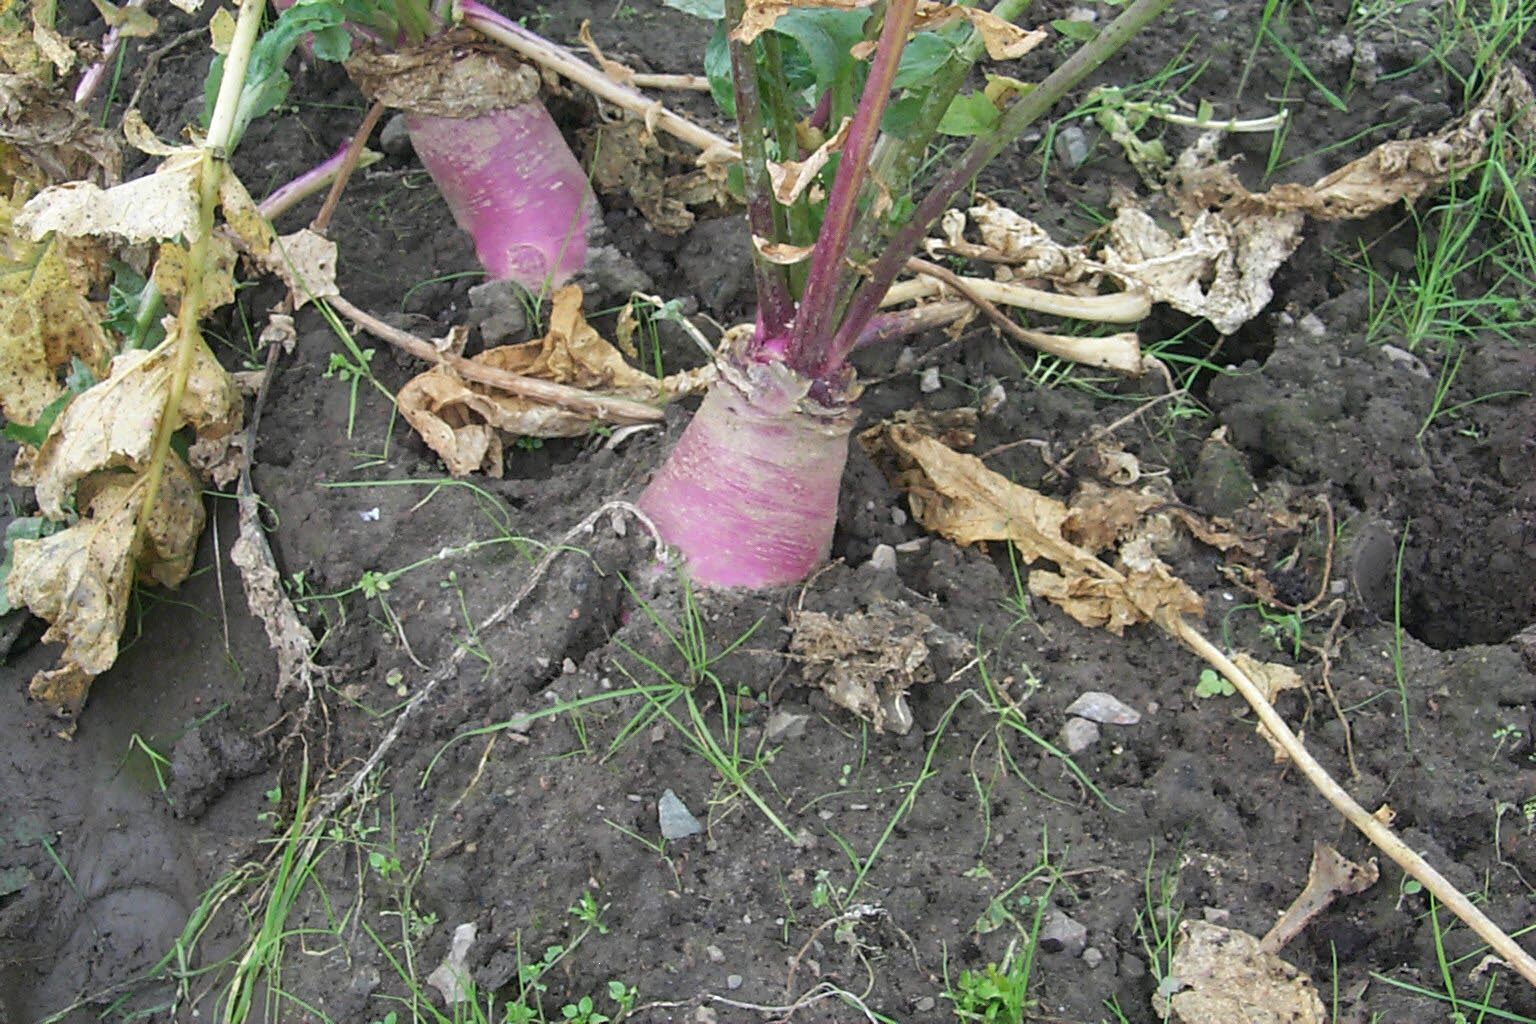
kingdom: Plantae
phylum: Tracheophyta
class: Magnoliopsida
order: Brassicales
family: Brassicaceae
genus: Brassica
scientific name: Brassica rapa
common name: Field mustard
